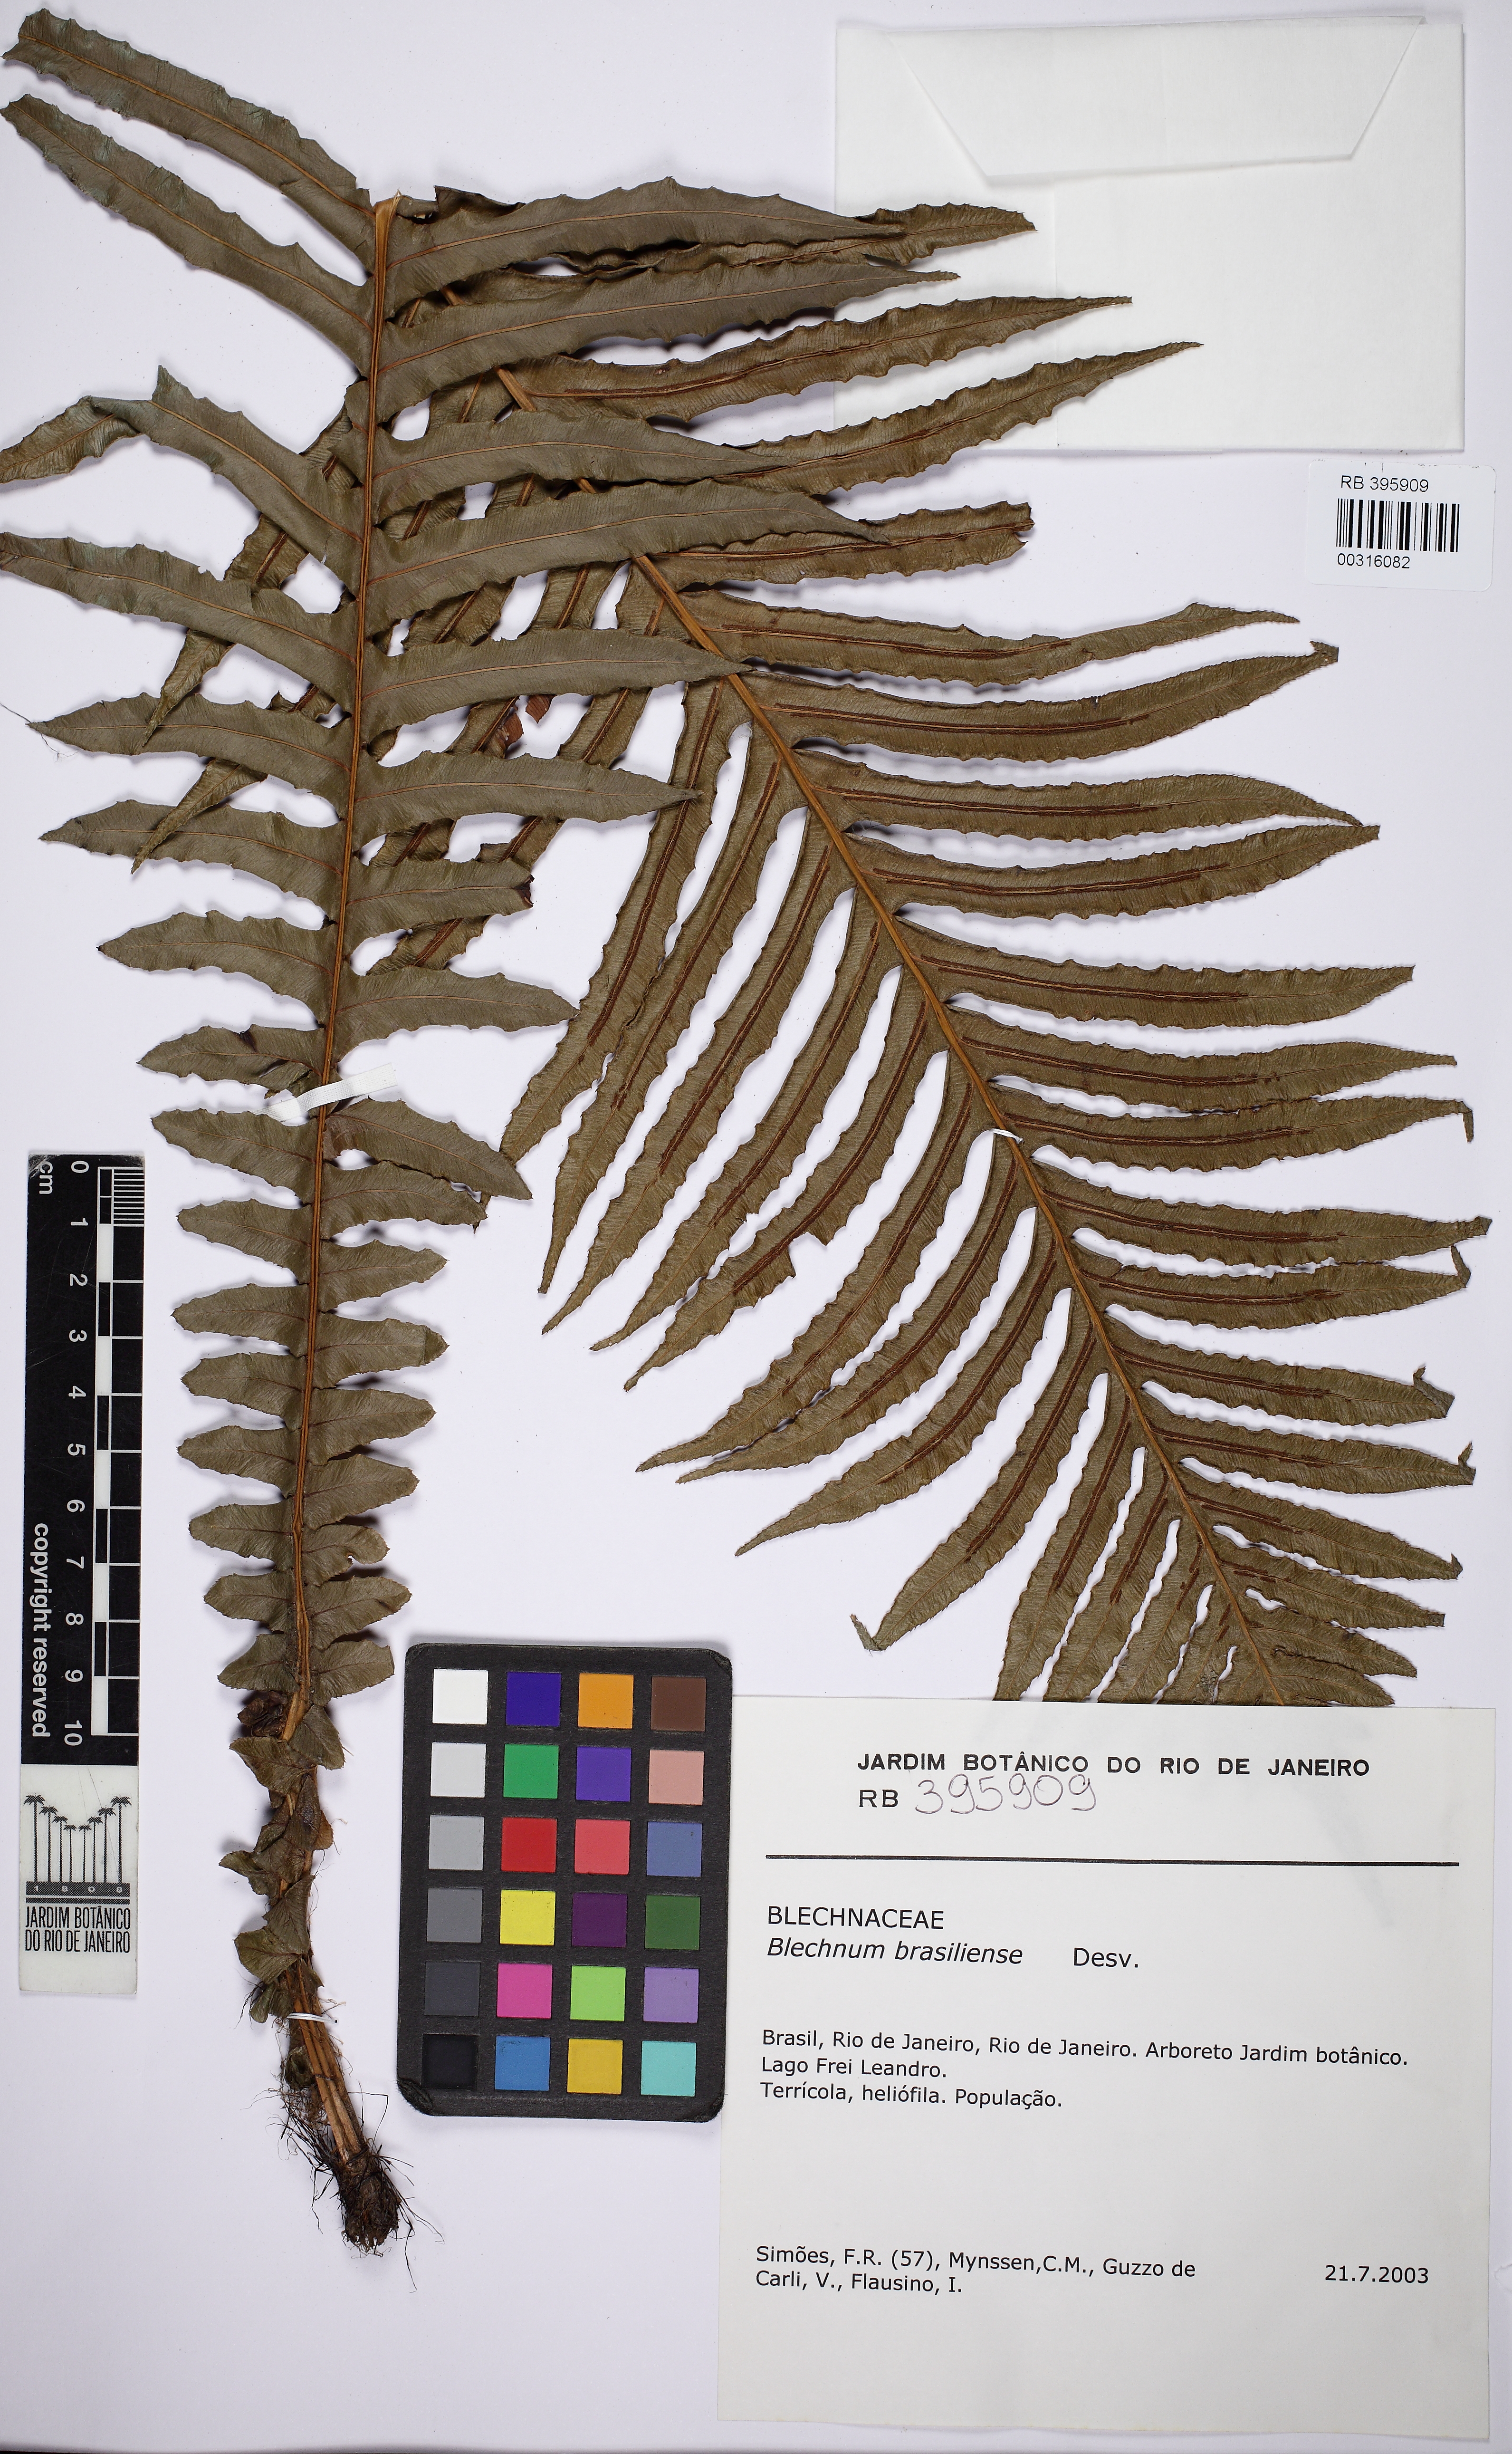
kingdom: Plantae
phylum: Tracheophyta
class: Polypodiopsida
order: Polypodiales
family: Blechnaceae
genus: Neoblechnum
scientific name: Neoblechnum brasiliense
